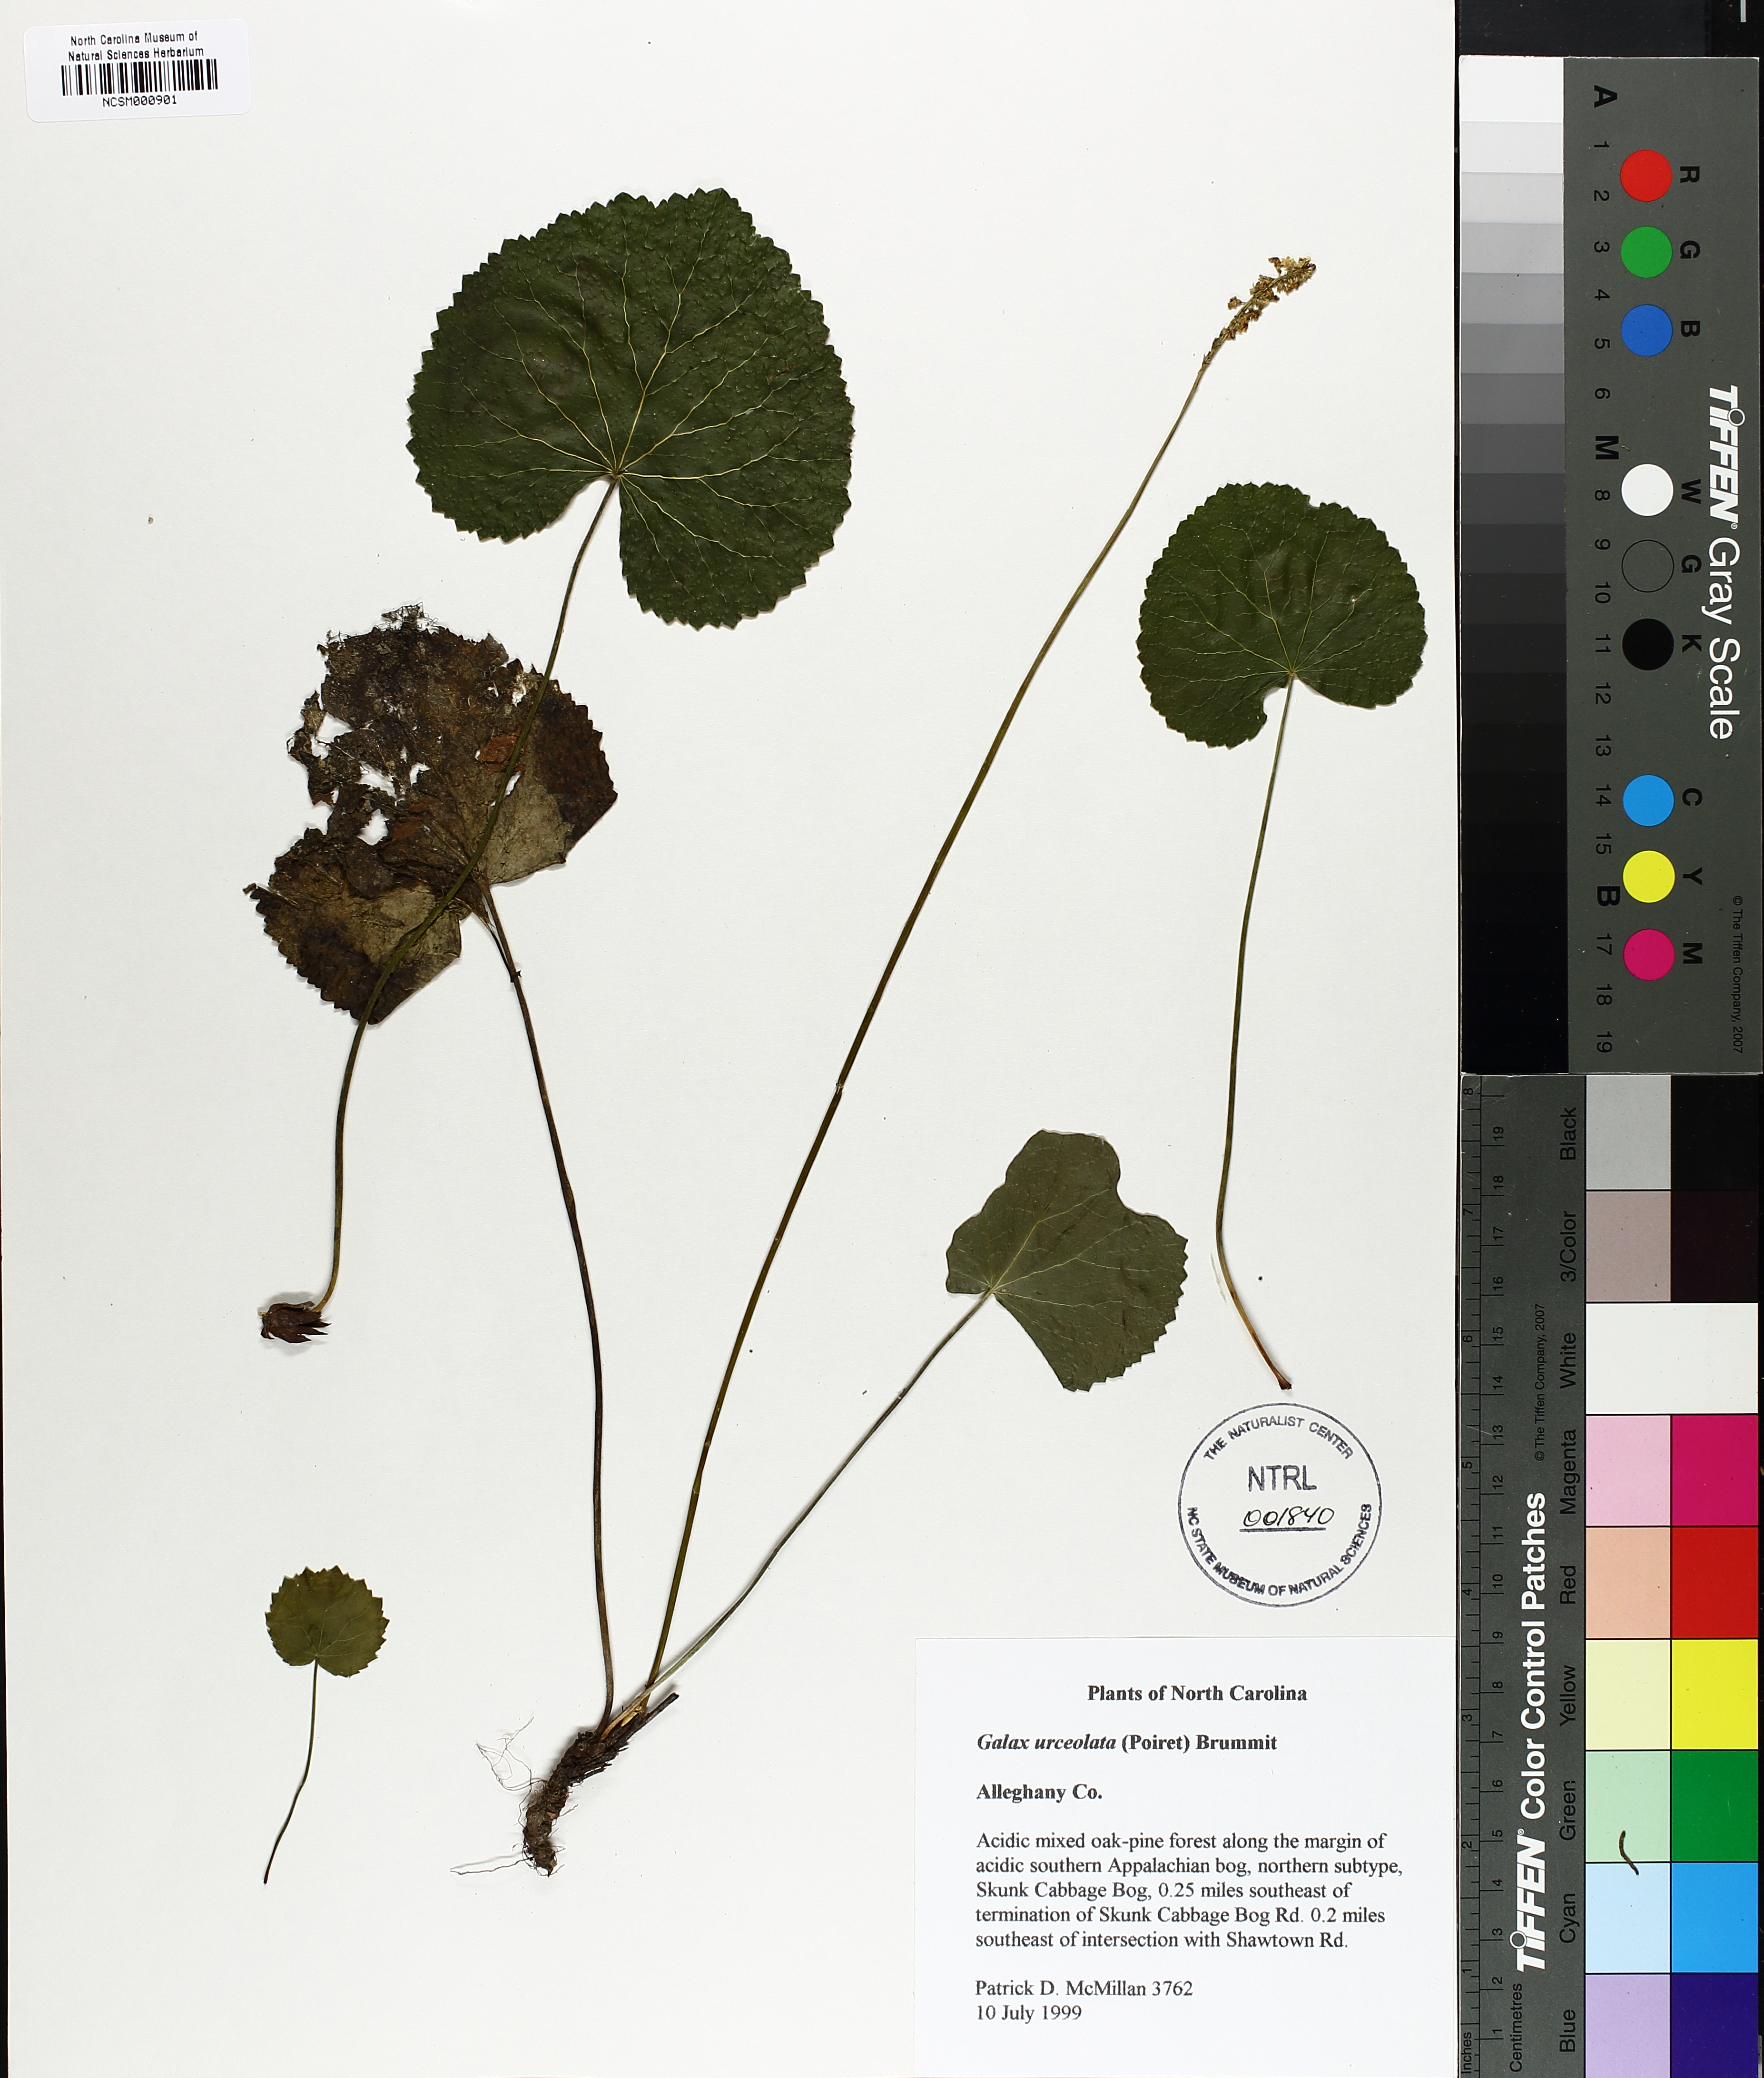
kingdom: Plantae
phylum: Tracheophyta
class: Magnoliopsida
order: Ericales
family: Diapensiaceae
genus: Galax
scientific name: Galax urceolata
